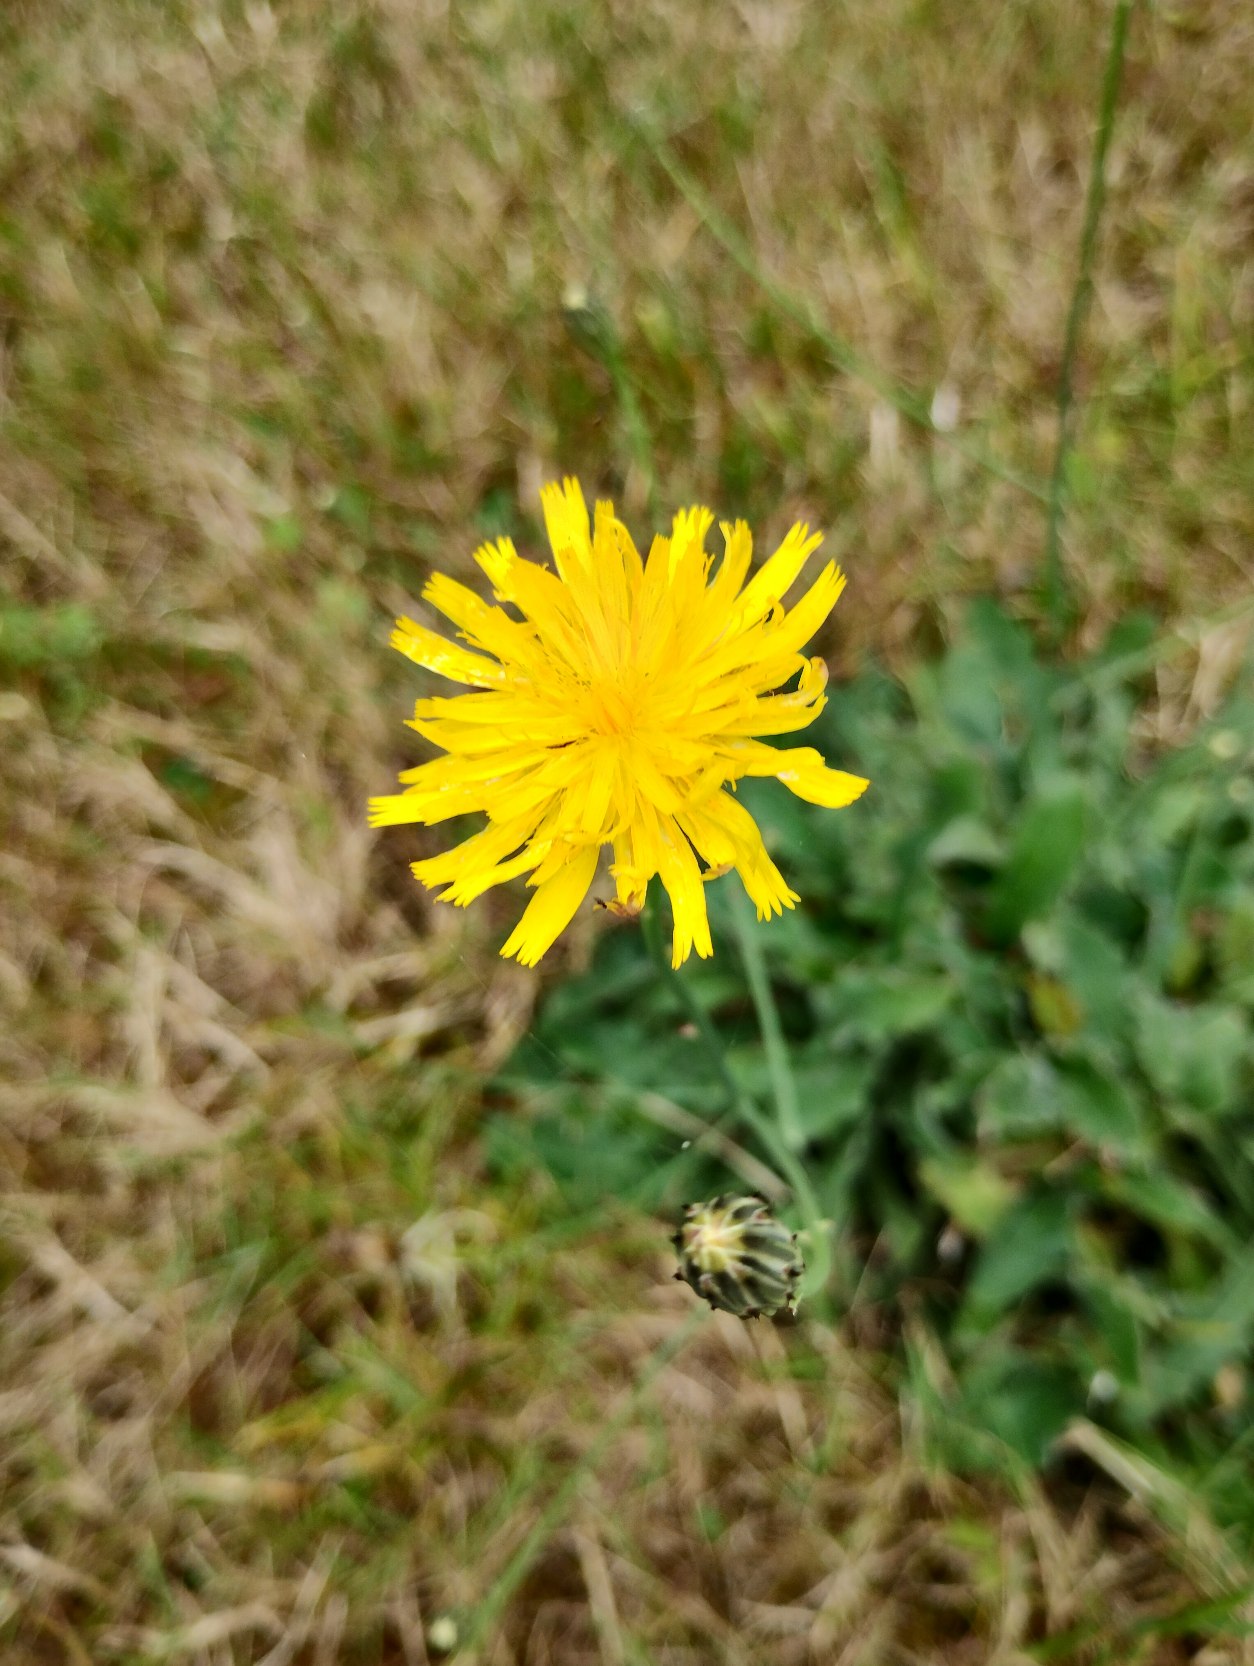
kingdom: Plantae
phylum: Tracheophyta
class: Magnoliopsida
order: Asterales
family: Asteraceae
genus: Hypochaeris
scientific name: Hypochaeris radicata
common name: Almindelig kongepen
